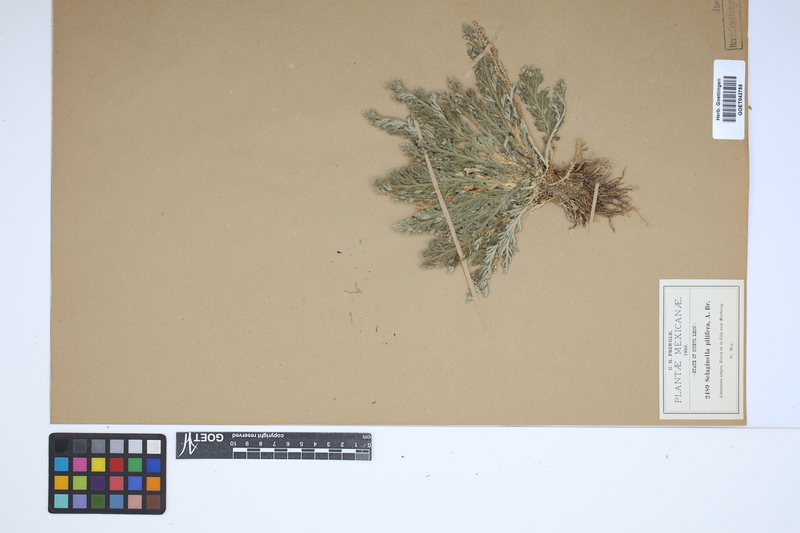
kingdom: Plantae
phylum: Tracheophyta
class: Lycopodiopsida
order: Selaginellales
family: Selaginellaceae
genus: Selaginella
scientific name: Selaginella pilifera
